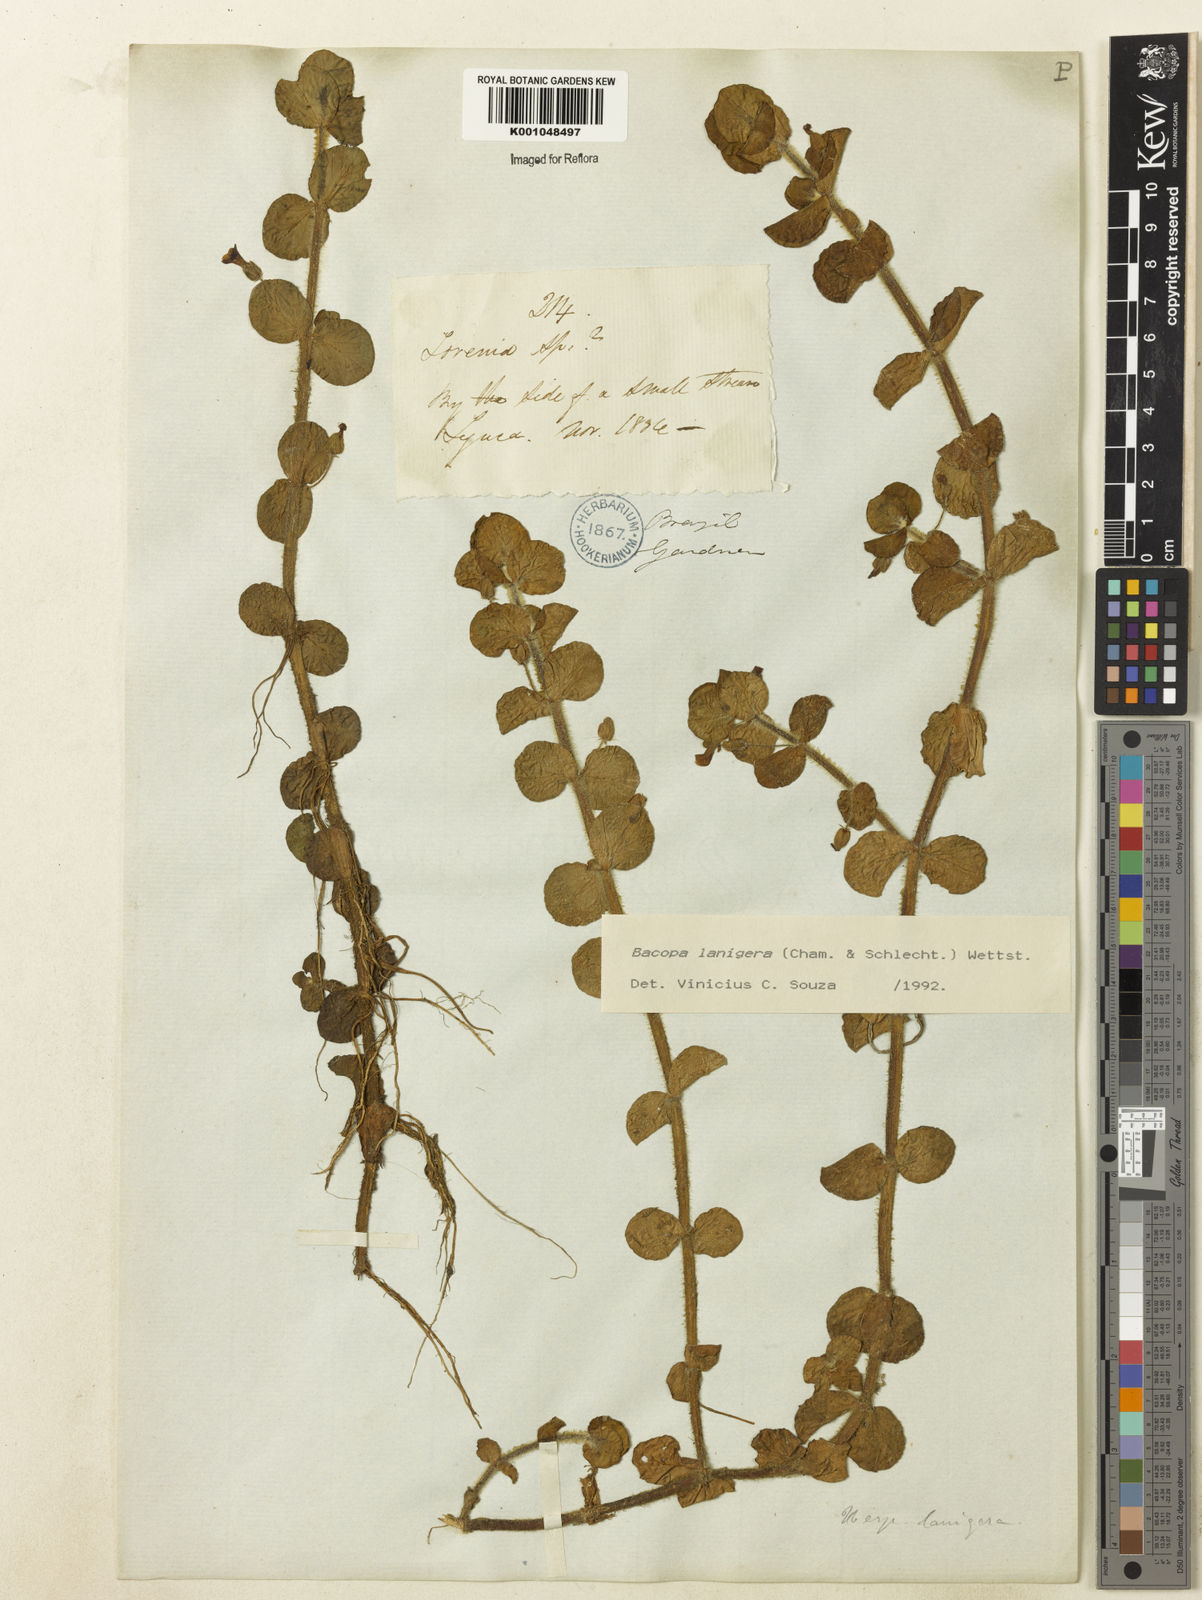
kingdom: Plantae
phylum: Tracheophyta
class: Magnoliopsida
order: Lamiales
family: Plantaginaceae
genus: Bacopa
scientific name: Bacopa lanigera
